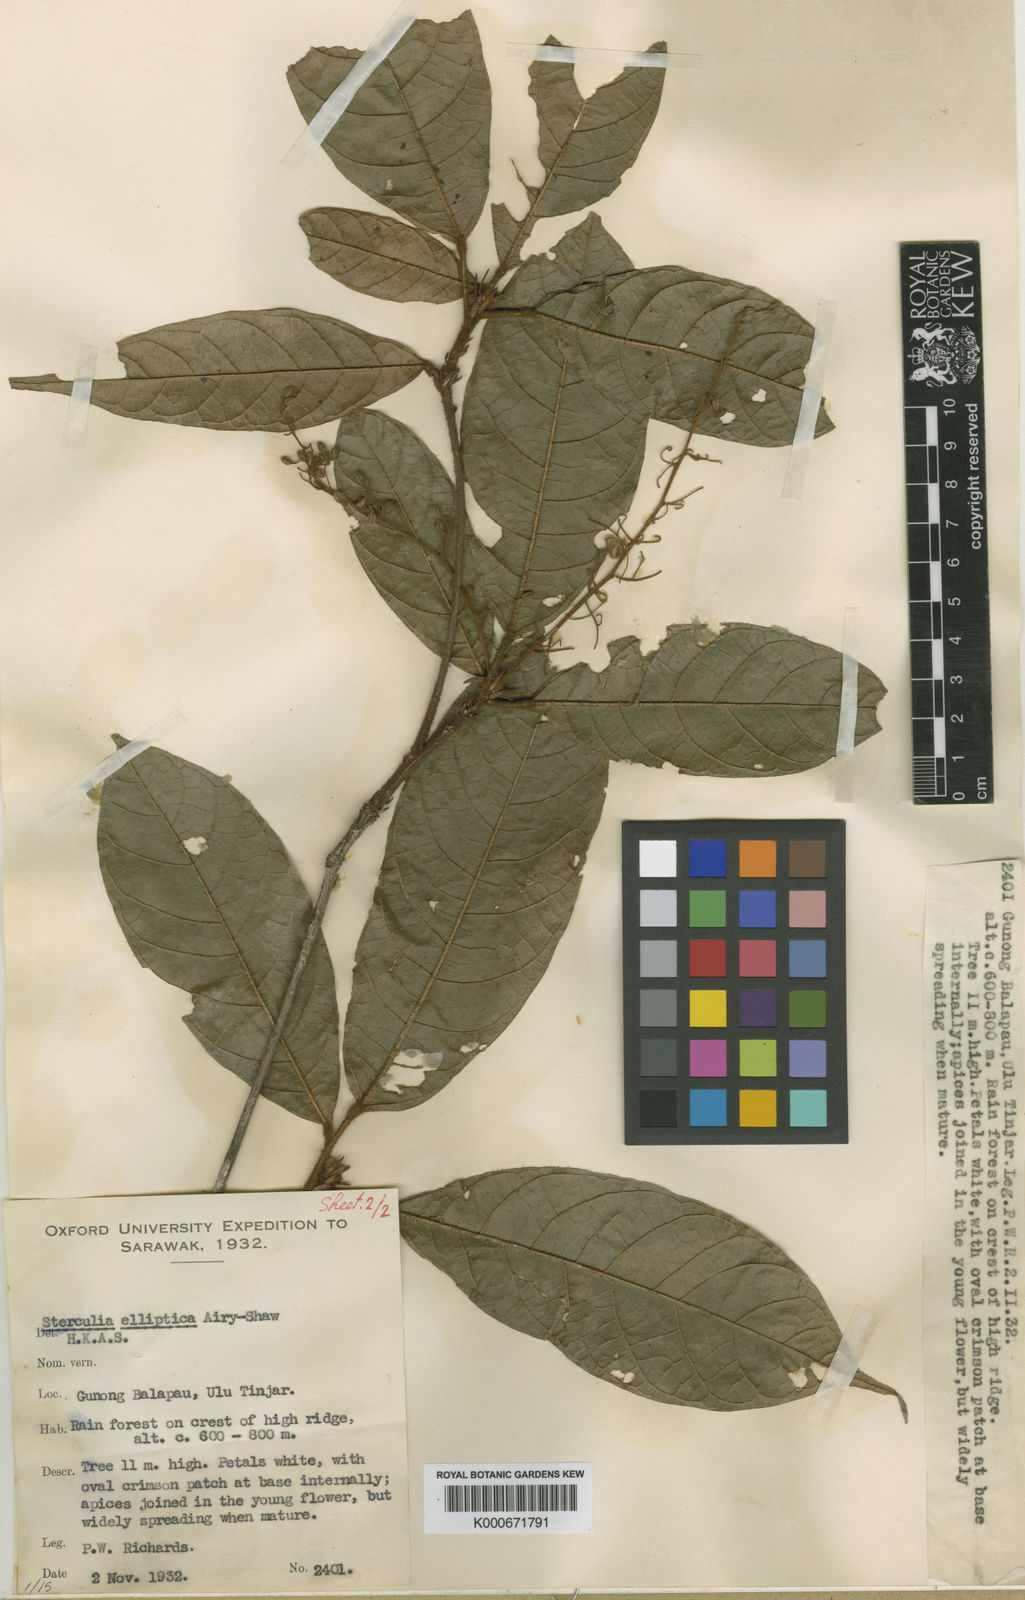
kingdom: Plantae
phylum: Tracheophyta
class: Magnoliopsida
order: Malvales
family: Malvaceae
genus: Sterculia
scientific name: Sterculia rubiginosa
